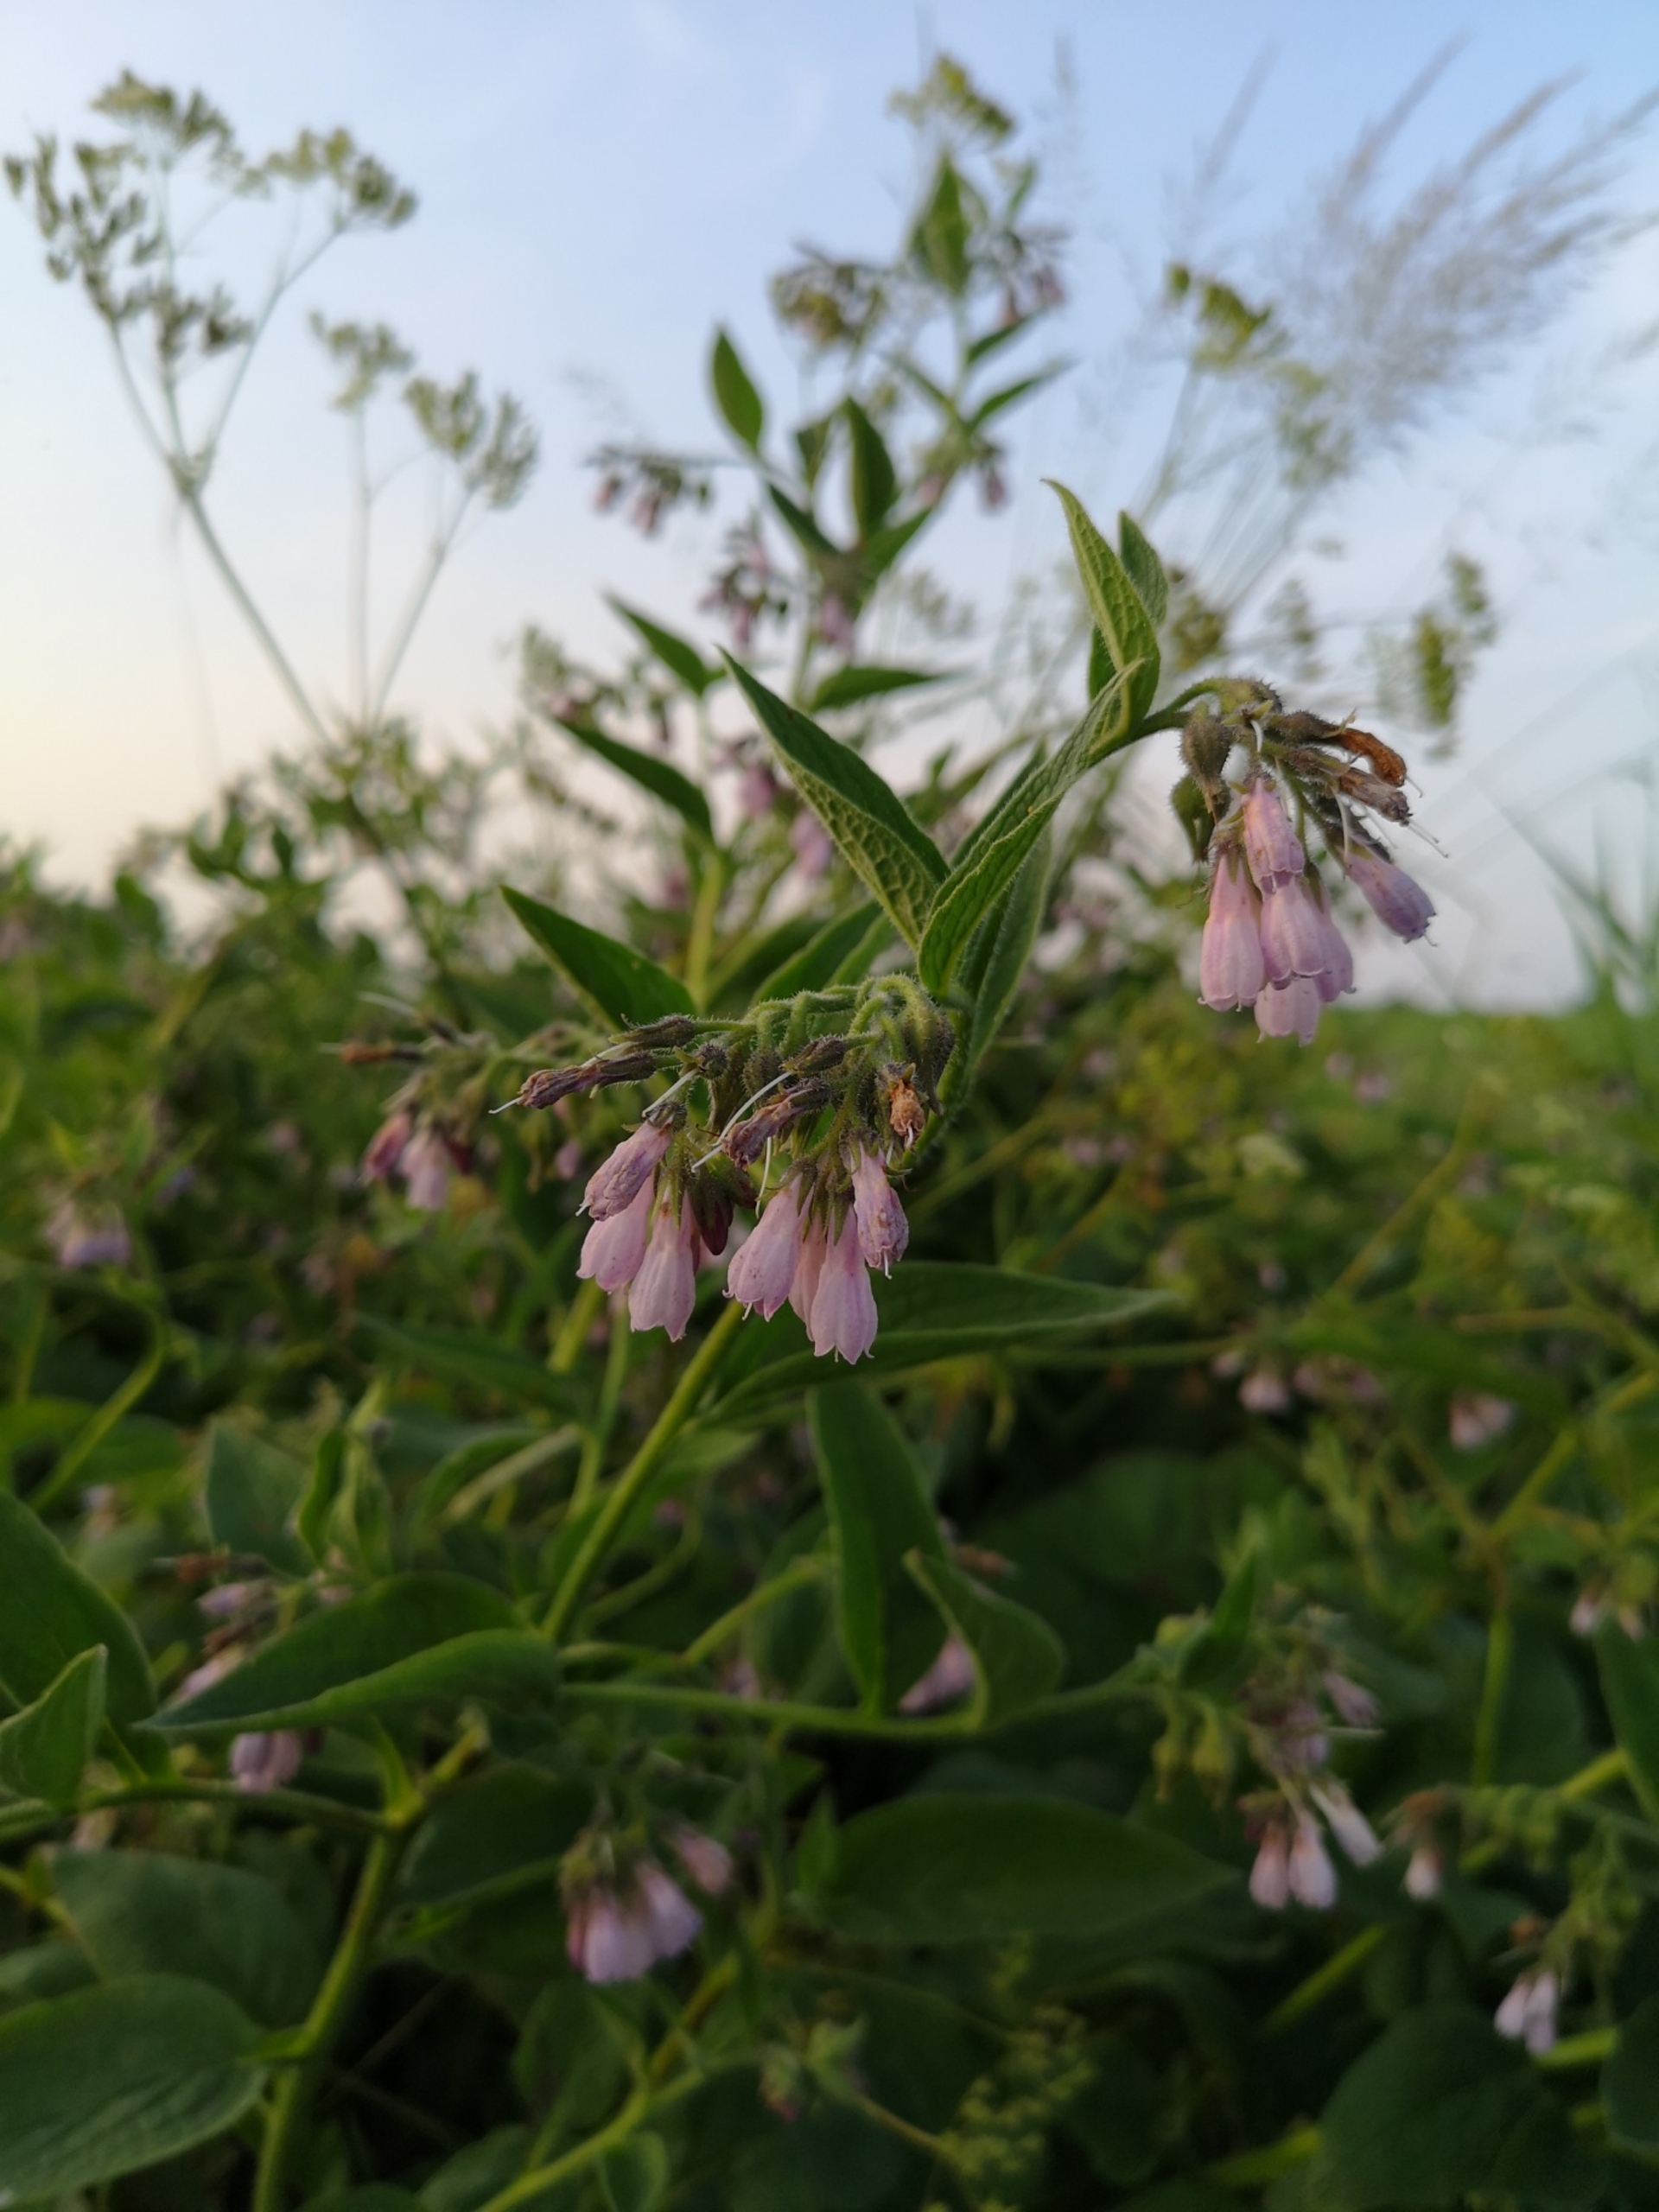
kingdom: Plantae
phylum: Tracheophyta
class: Magnoliopsida
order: Boraginales
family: Boraginaceae
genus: Symphytum
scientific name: Symphytum uplandicum
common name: Foder-kulsukker
